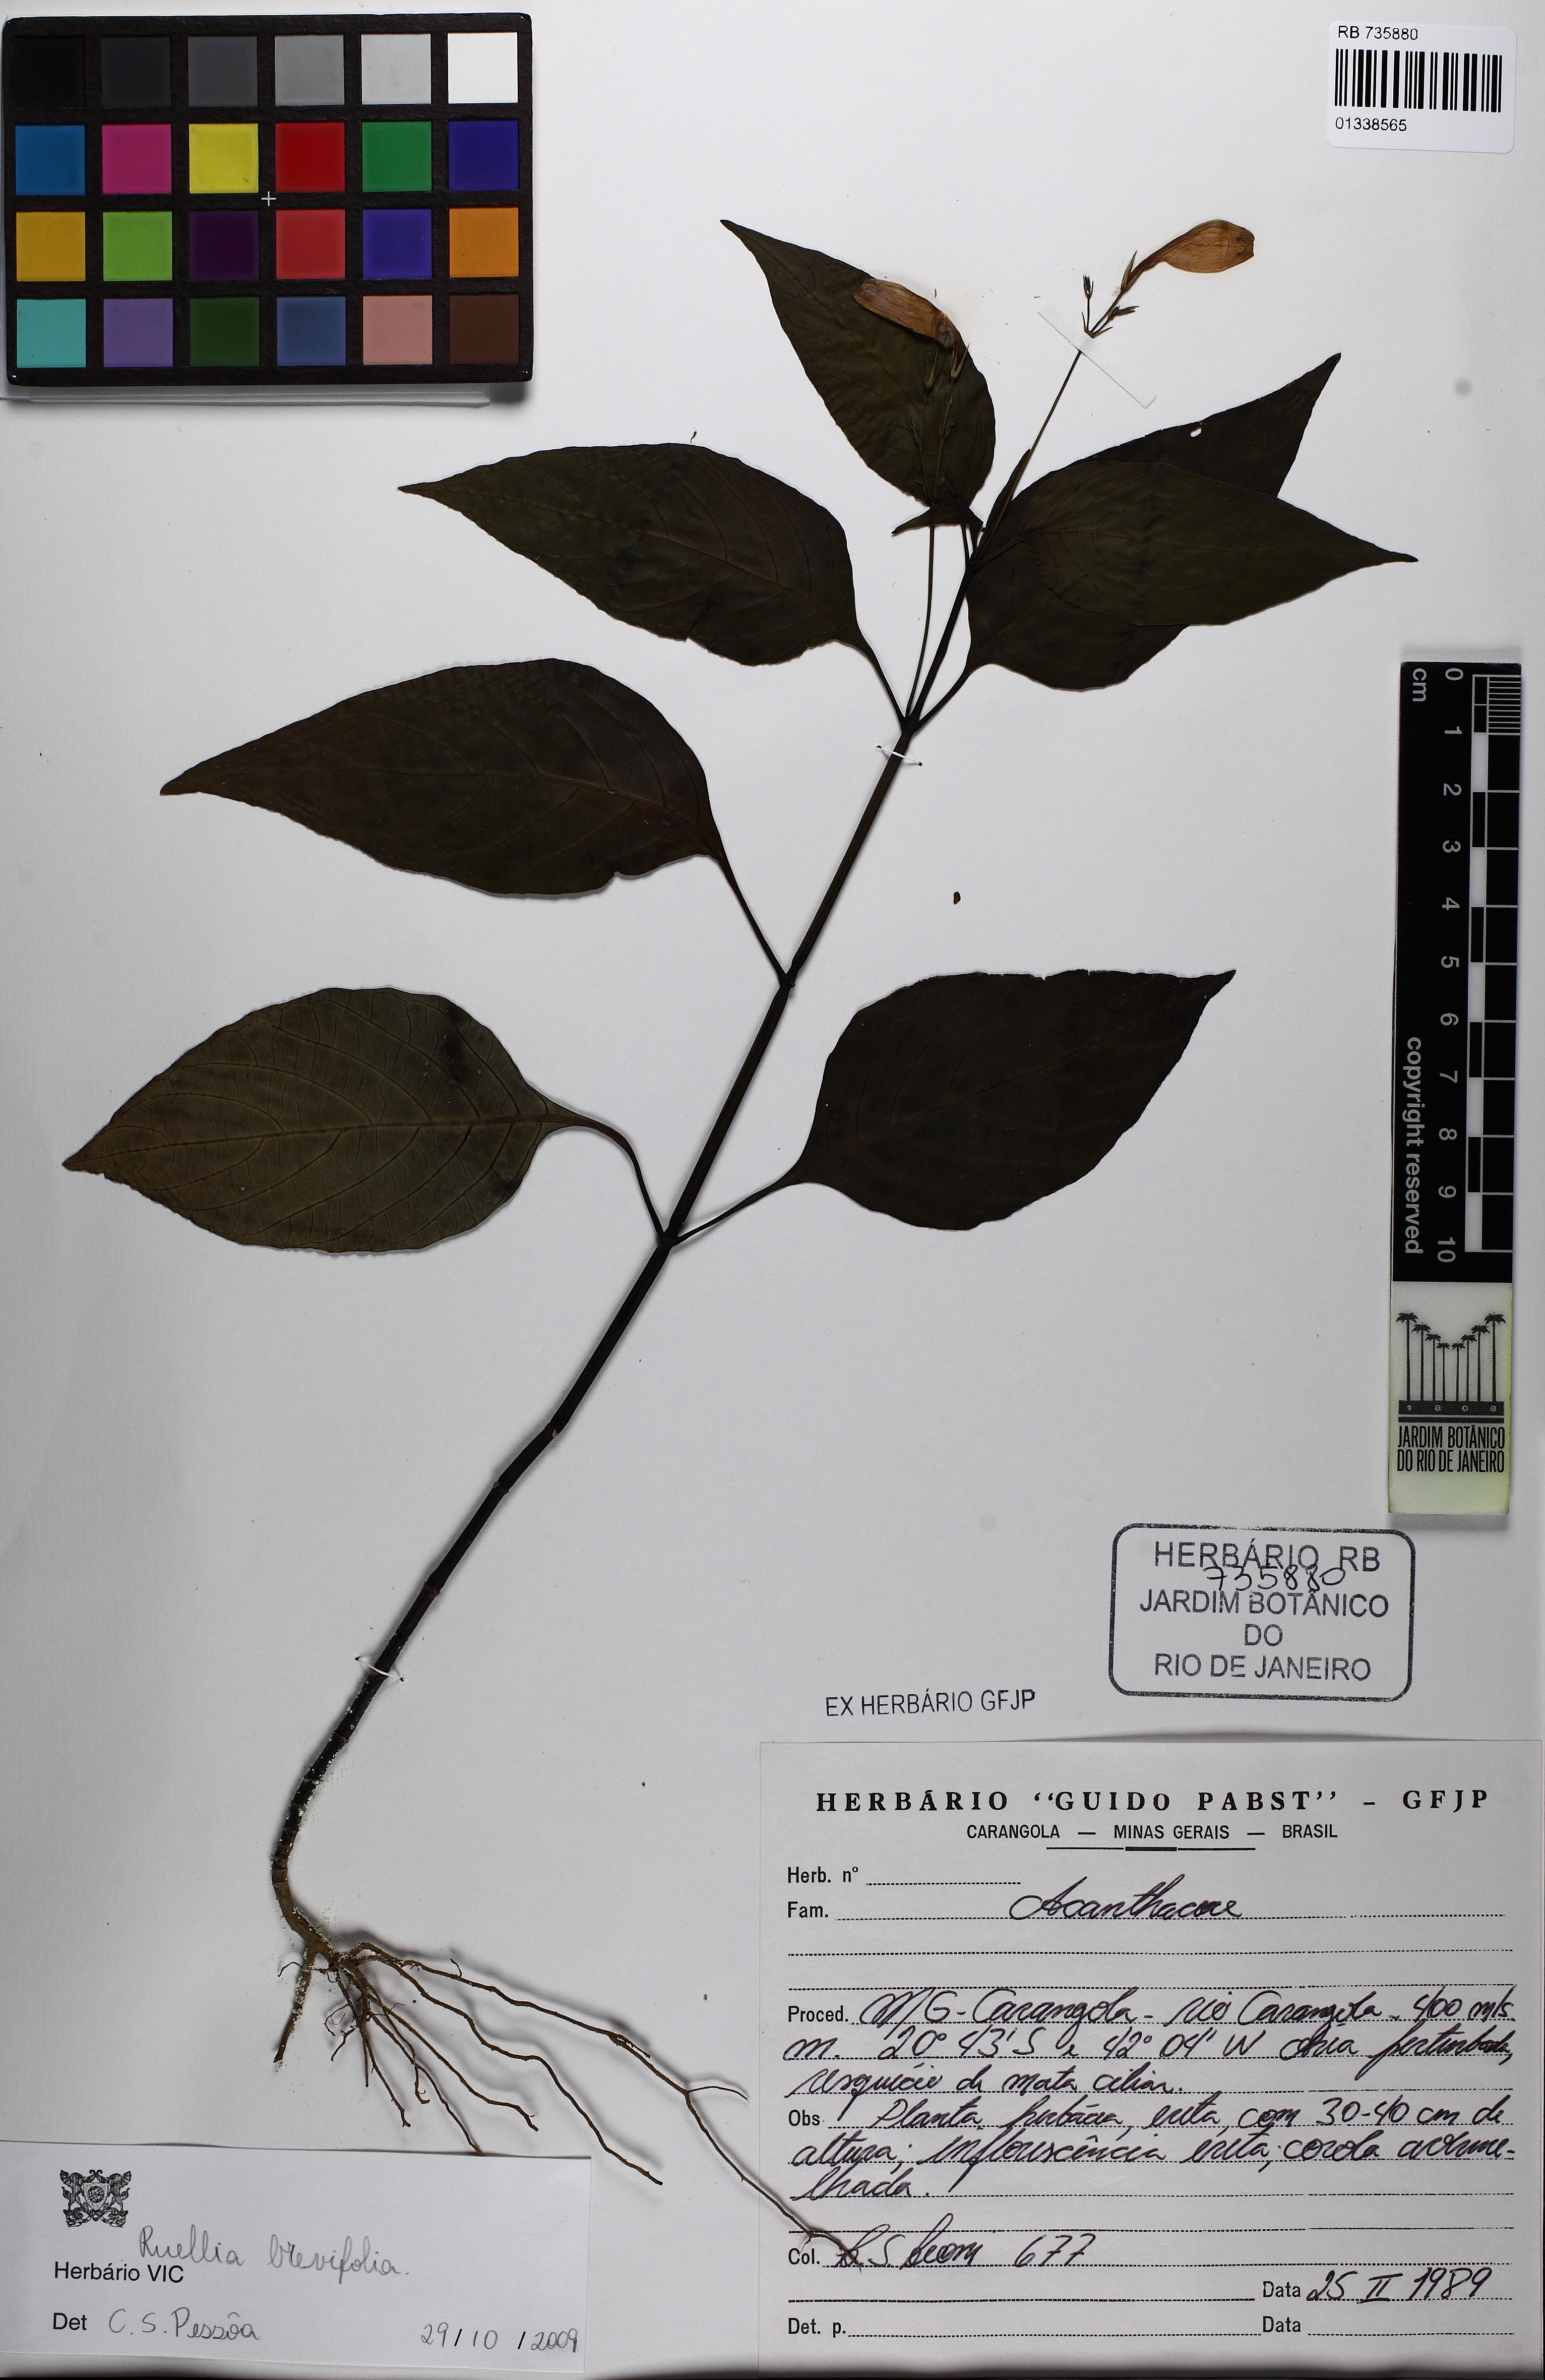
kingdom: Plantae
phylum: Tracheophyta
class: Magnoliopsida
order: Lamiales
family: Acanthaceae
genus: Ruellia
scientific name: Ruellia brevifolia
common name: Tropical wild petunia
